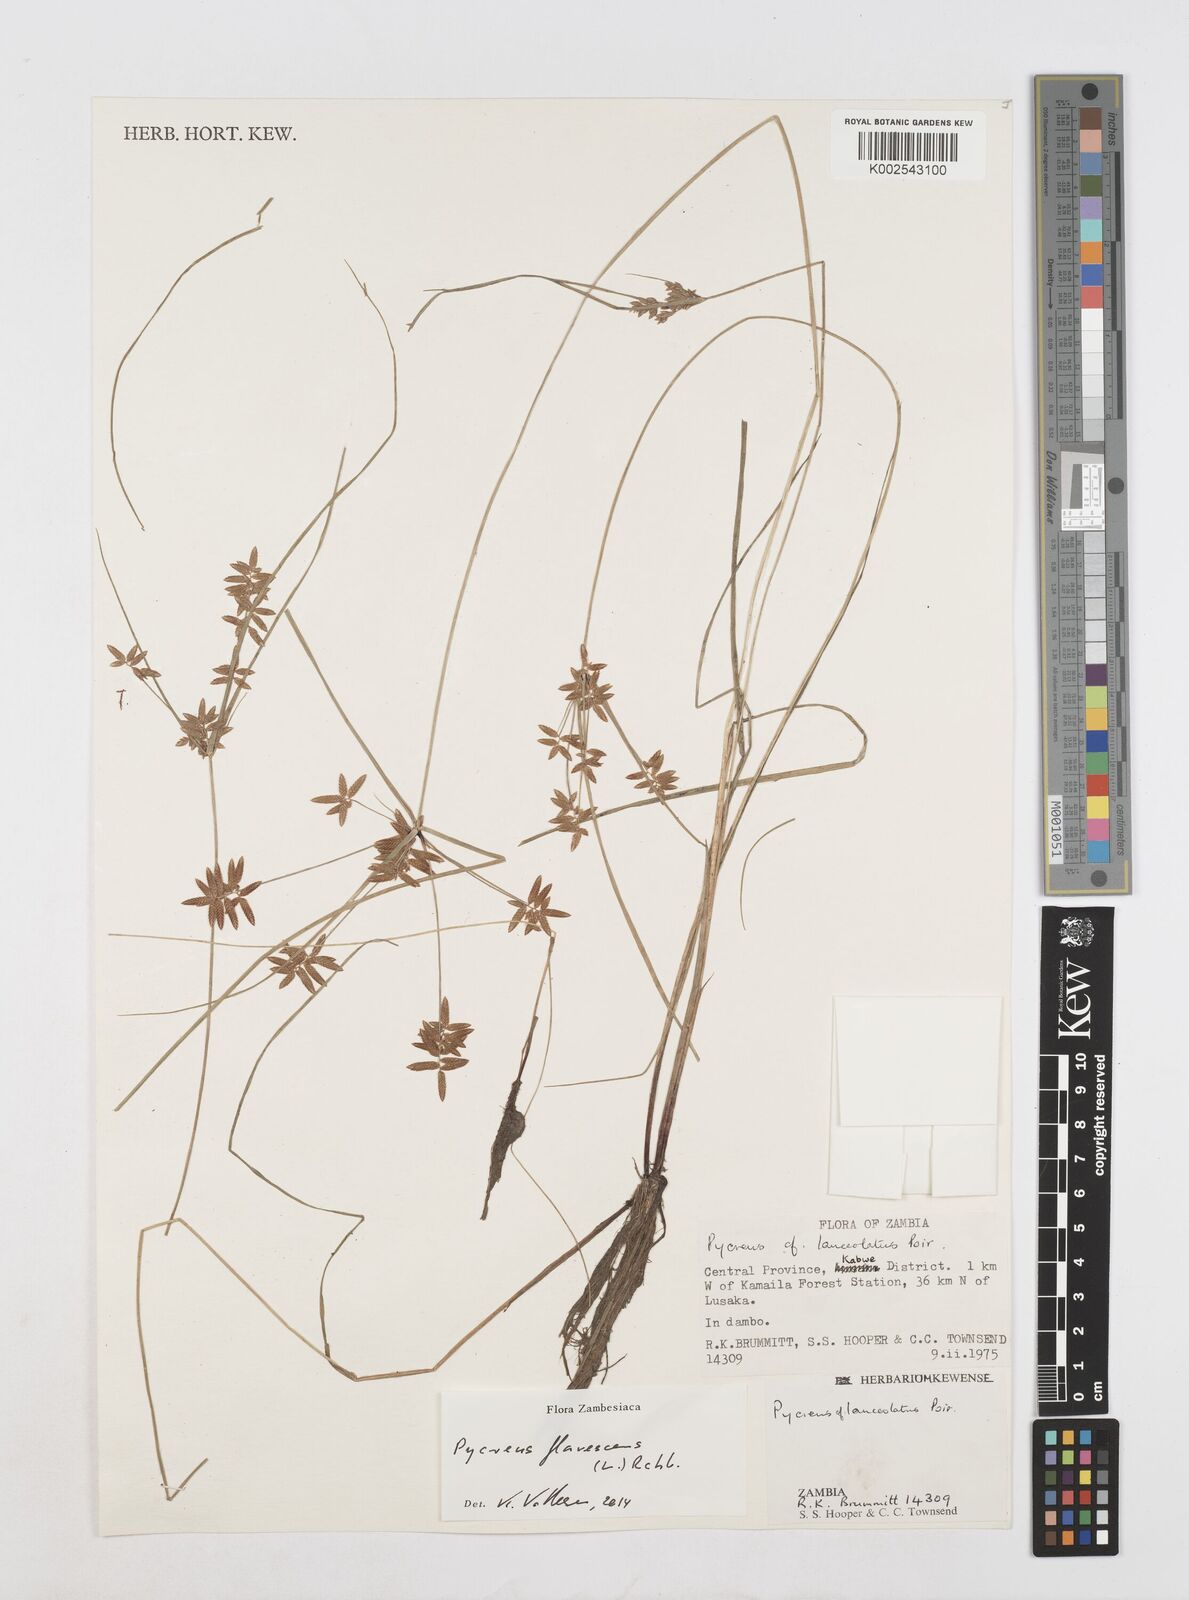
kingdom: Plantae
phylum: Tracheophyta
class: Liliopsida
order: Poales
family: Cyperaceae
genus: Cyperus
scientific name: Cyperus flavescens
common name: Yellow galingale
